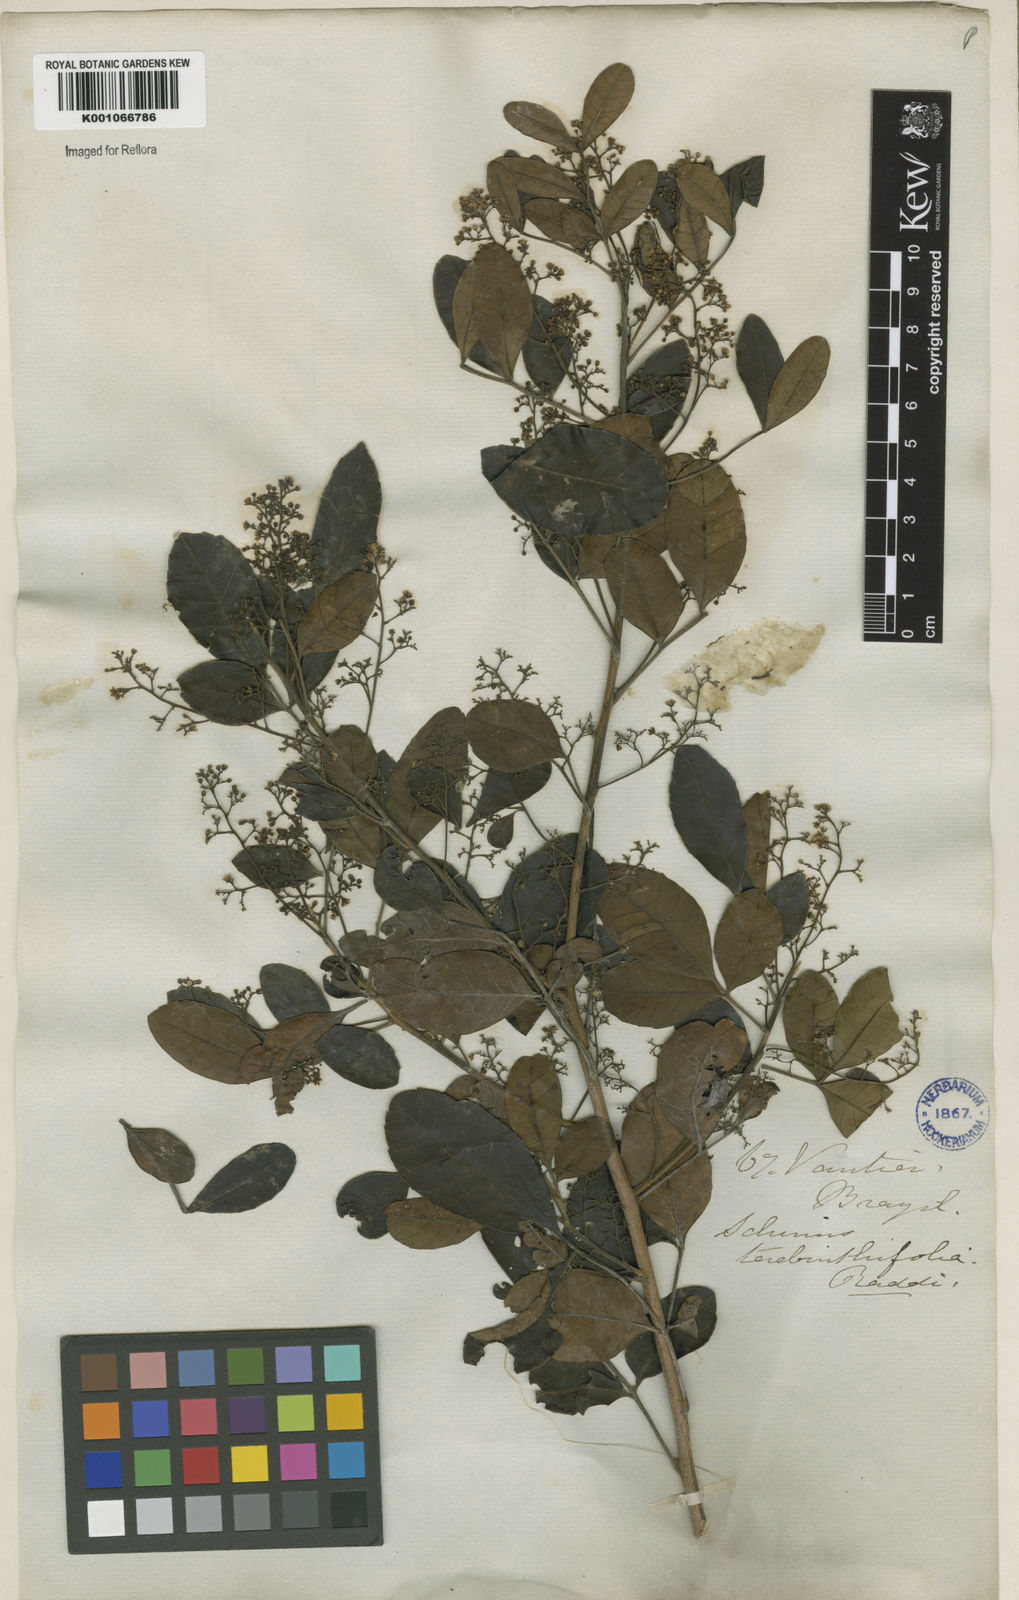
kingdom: Plantae
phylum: Tracheophyta
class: Magnoliopsida
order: Sapindales
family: Anacardiaceae
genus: Schinus
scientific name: Schinus terebinthifolia
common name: Brazilian peppertree
